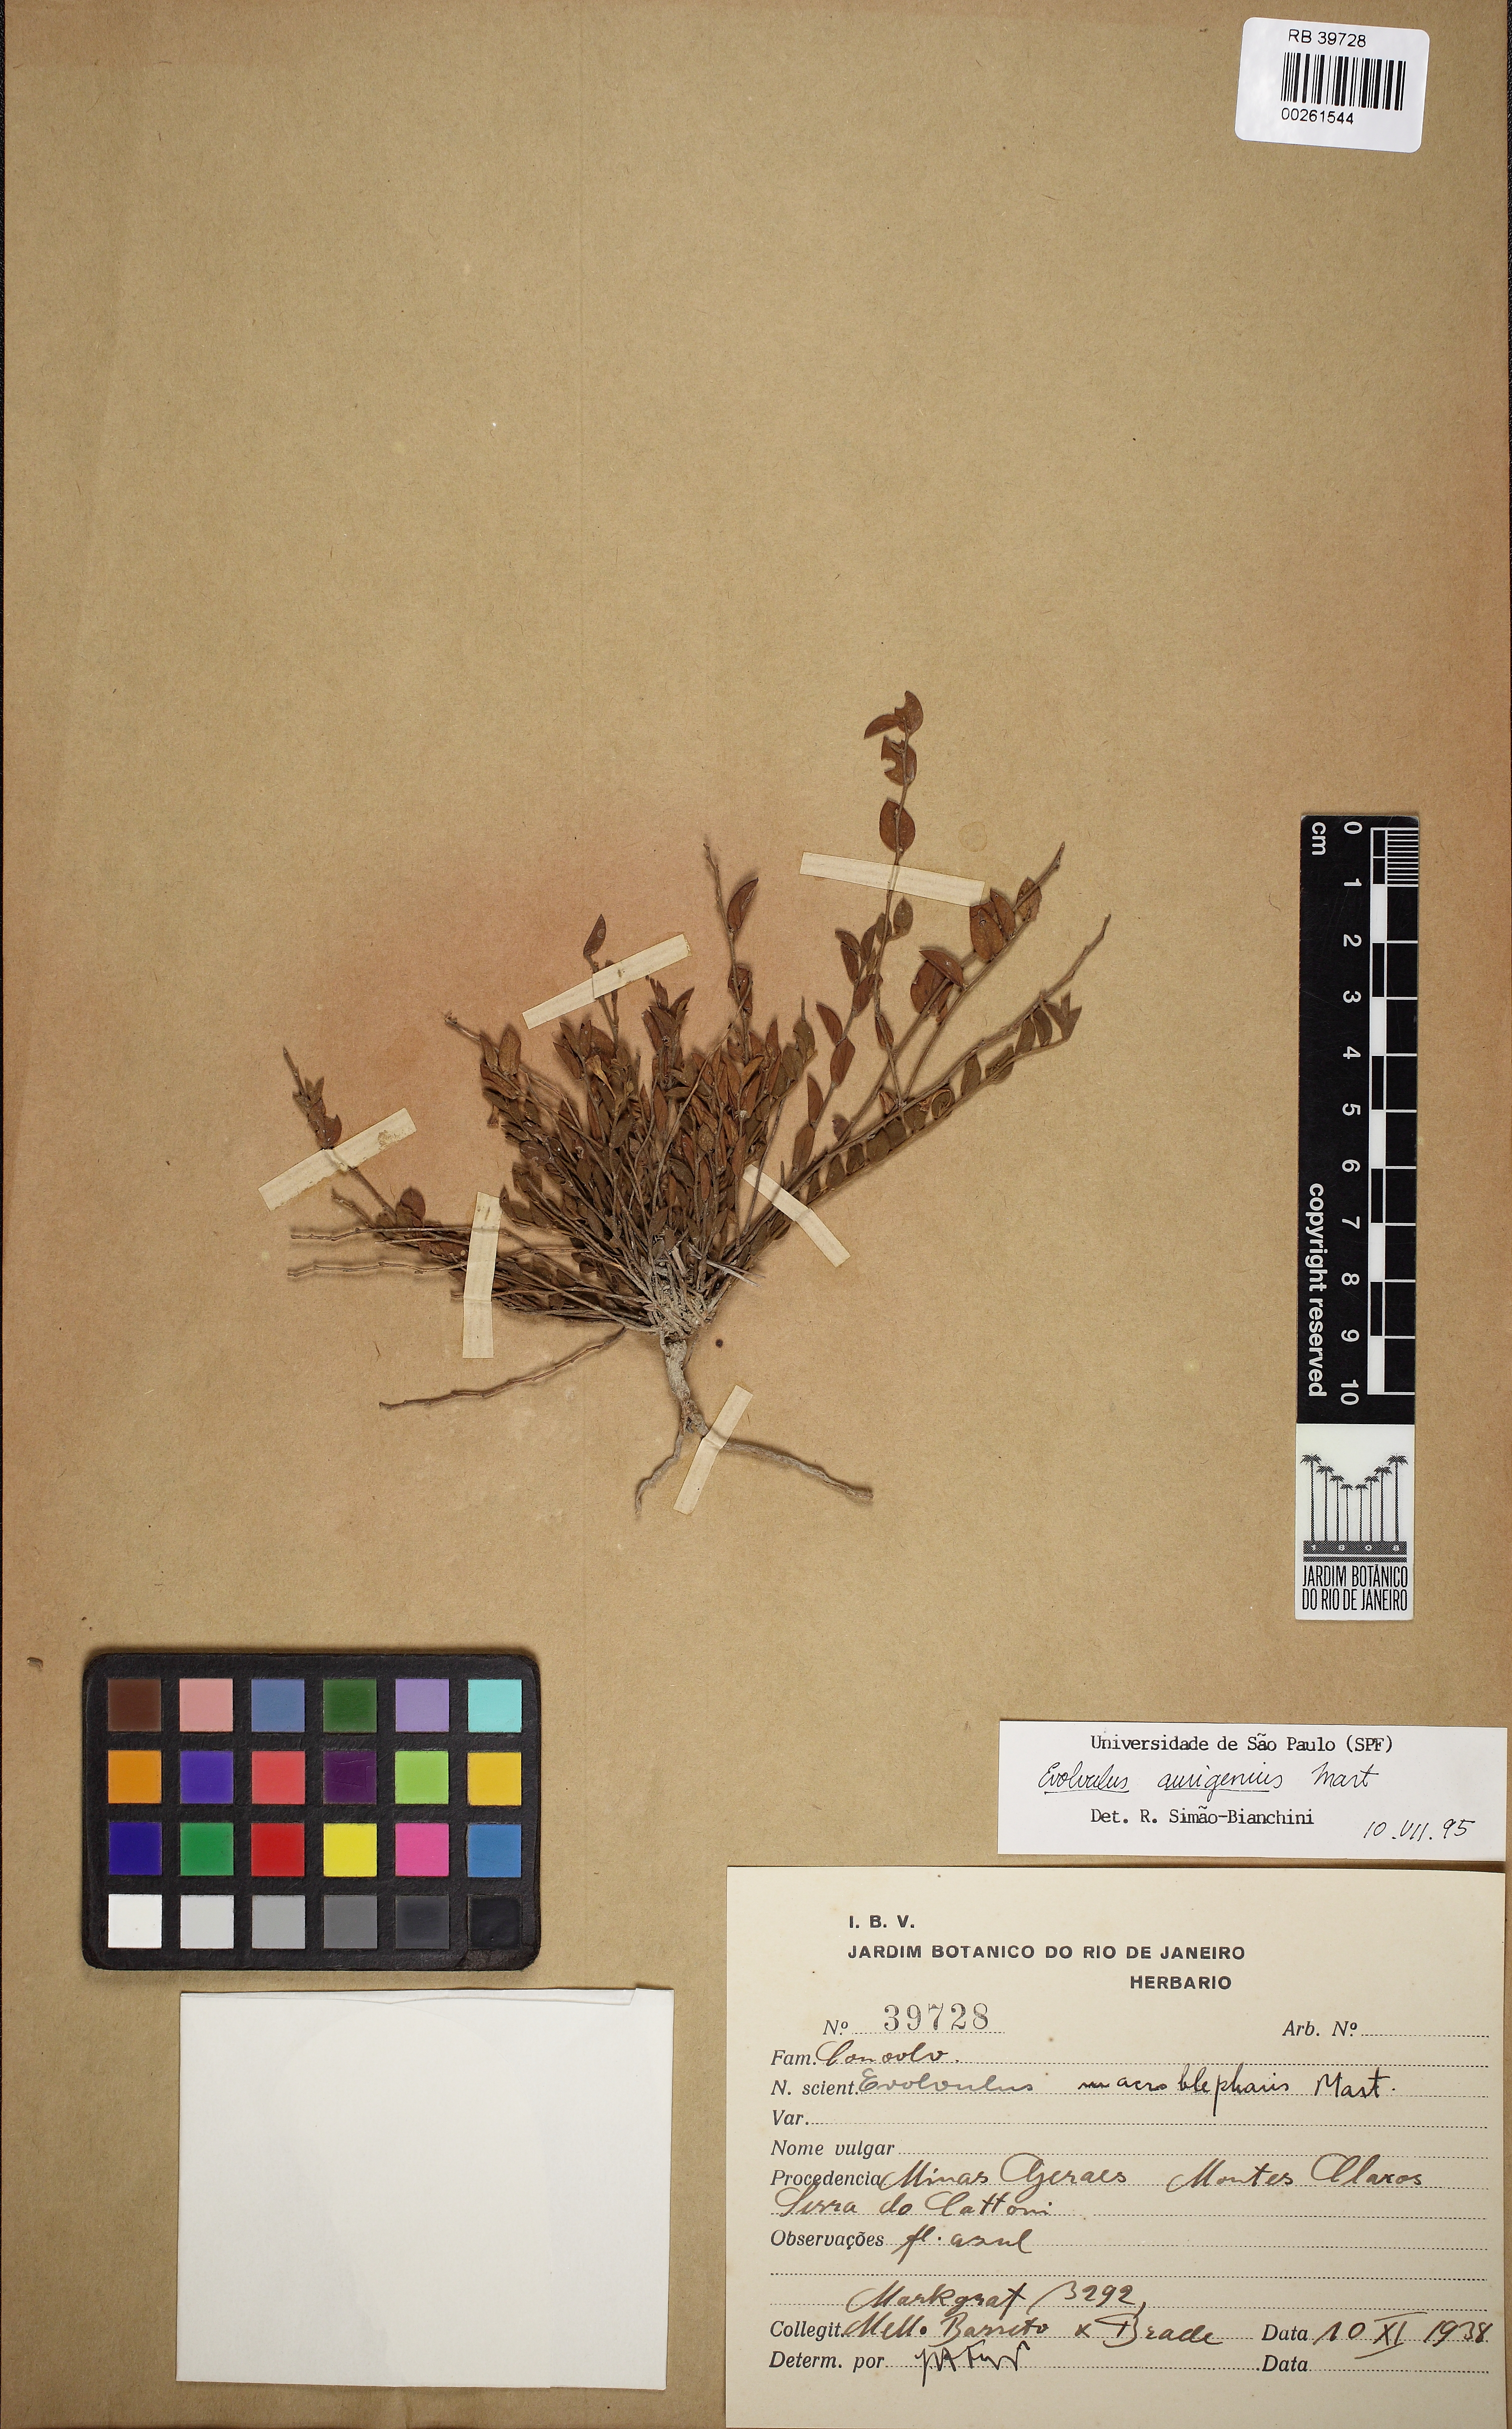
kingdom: Plantae
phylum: Tracheophyta
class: Magnoliopsida
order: Solanales
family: Convolvulaceae
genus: Evolvulus
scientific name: Evolvulus aurigenius
